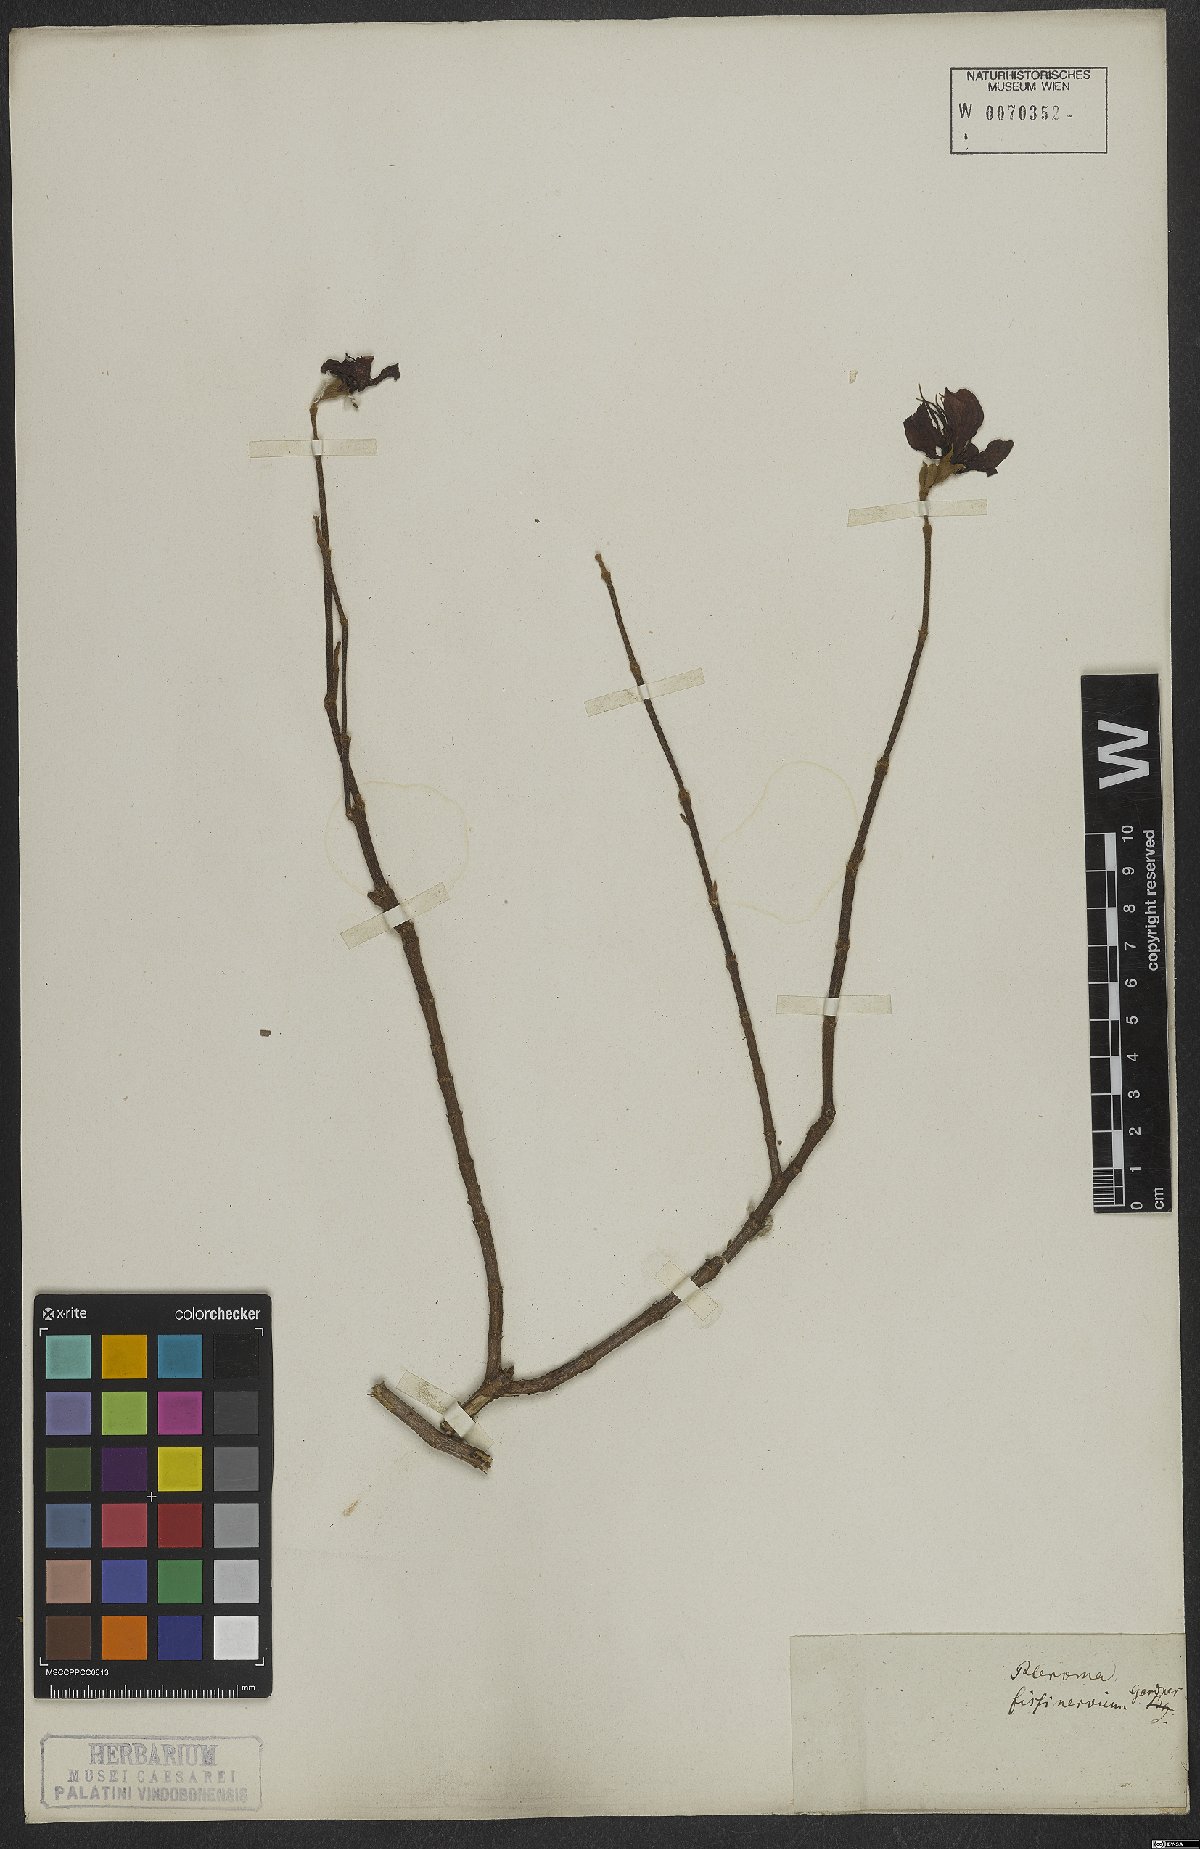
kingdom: Plantae
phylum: Tracheophyta
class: Magnoliopsida
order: Myrtales
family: Melastomataceae
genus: Pleroma
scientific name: Pleroma fissinervium
